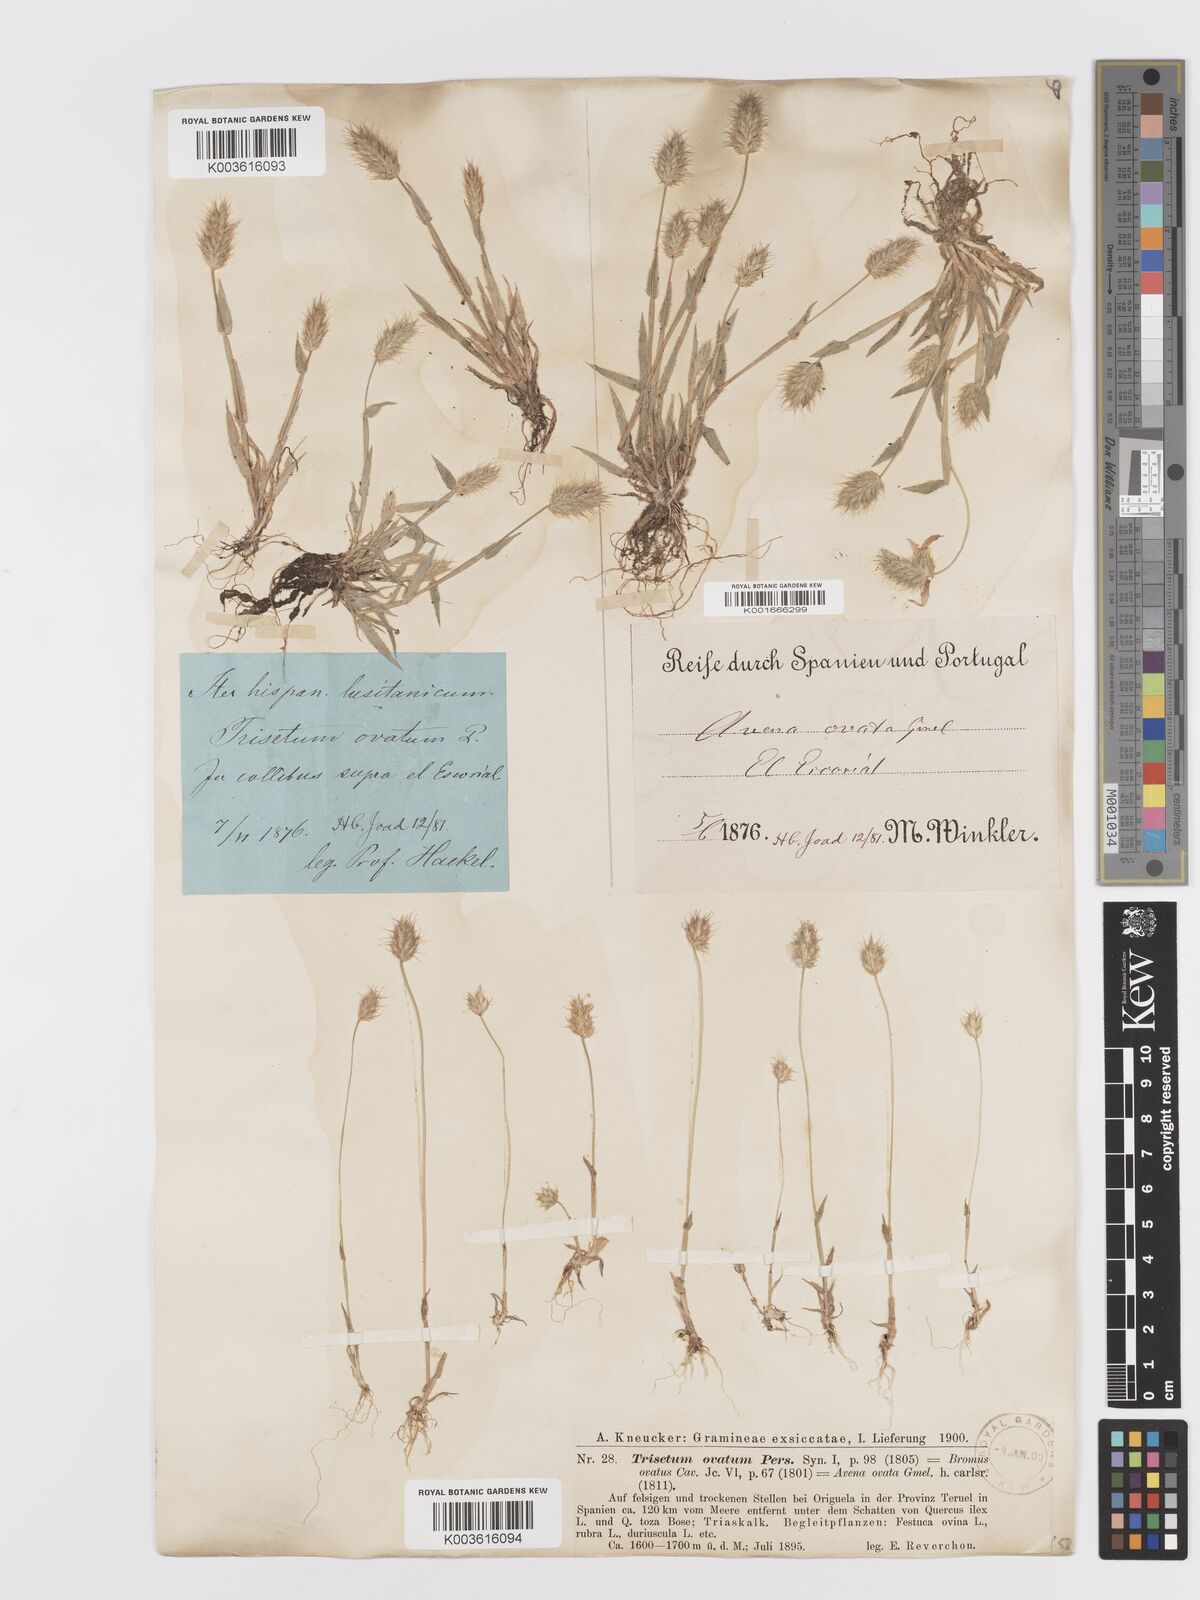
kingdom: Plantae
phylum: Tracheophyta
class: Liliopsida
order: Poales
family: Poaceae
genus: Trisetaria
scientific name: Trisetaria ovata
